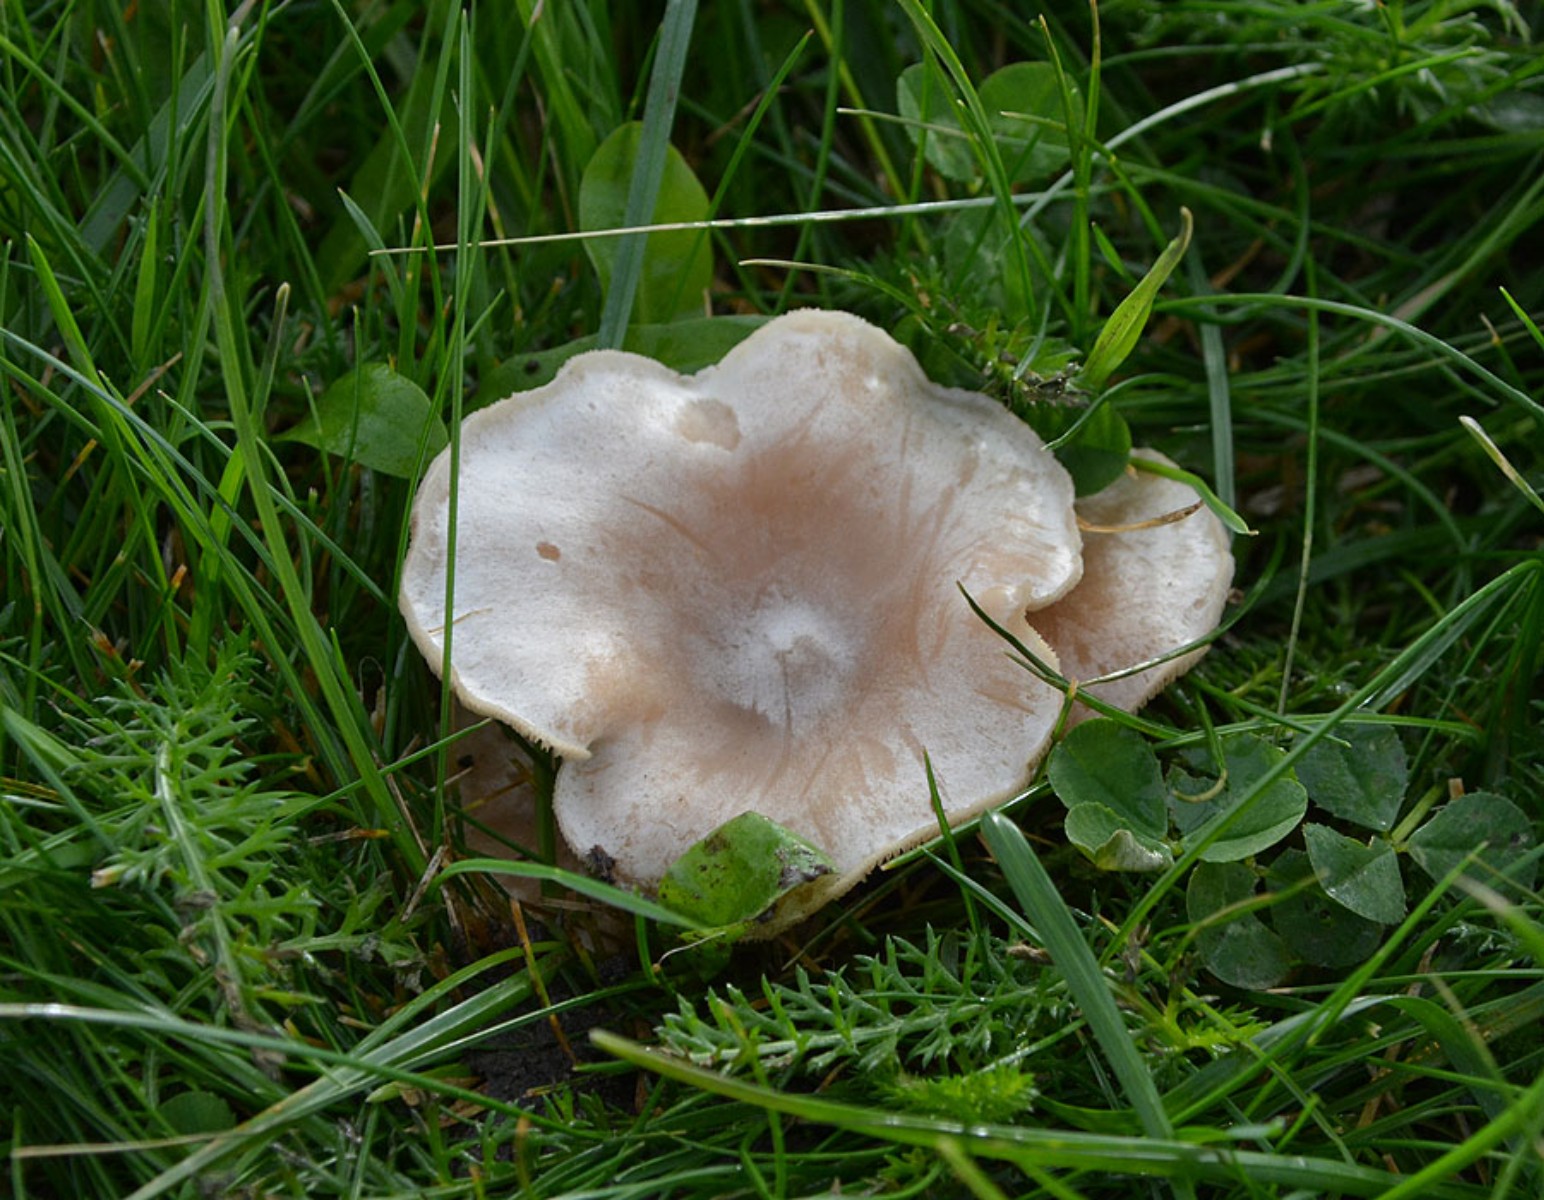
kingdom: Fungi
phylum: Basidiomycota
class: Agaricomycetes
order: Agaricales
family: Tricholomataceae
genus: Clitocybe
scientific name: Clitocybe rivulosa
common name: eng-tragthat
